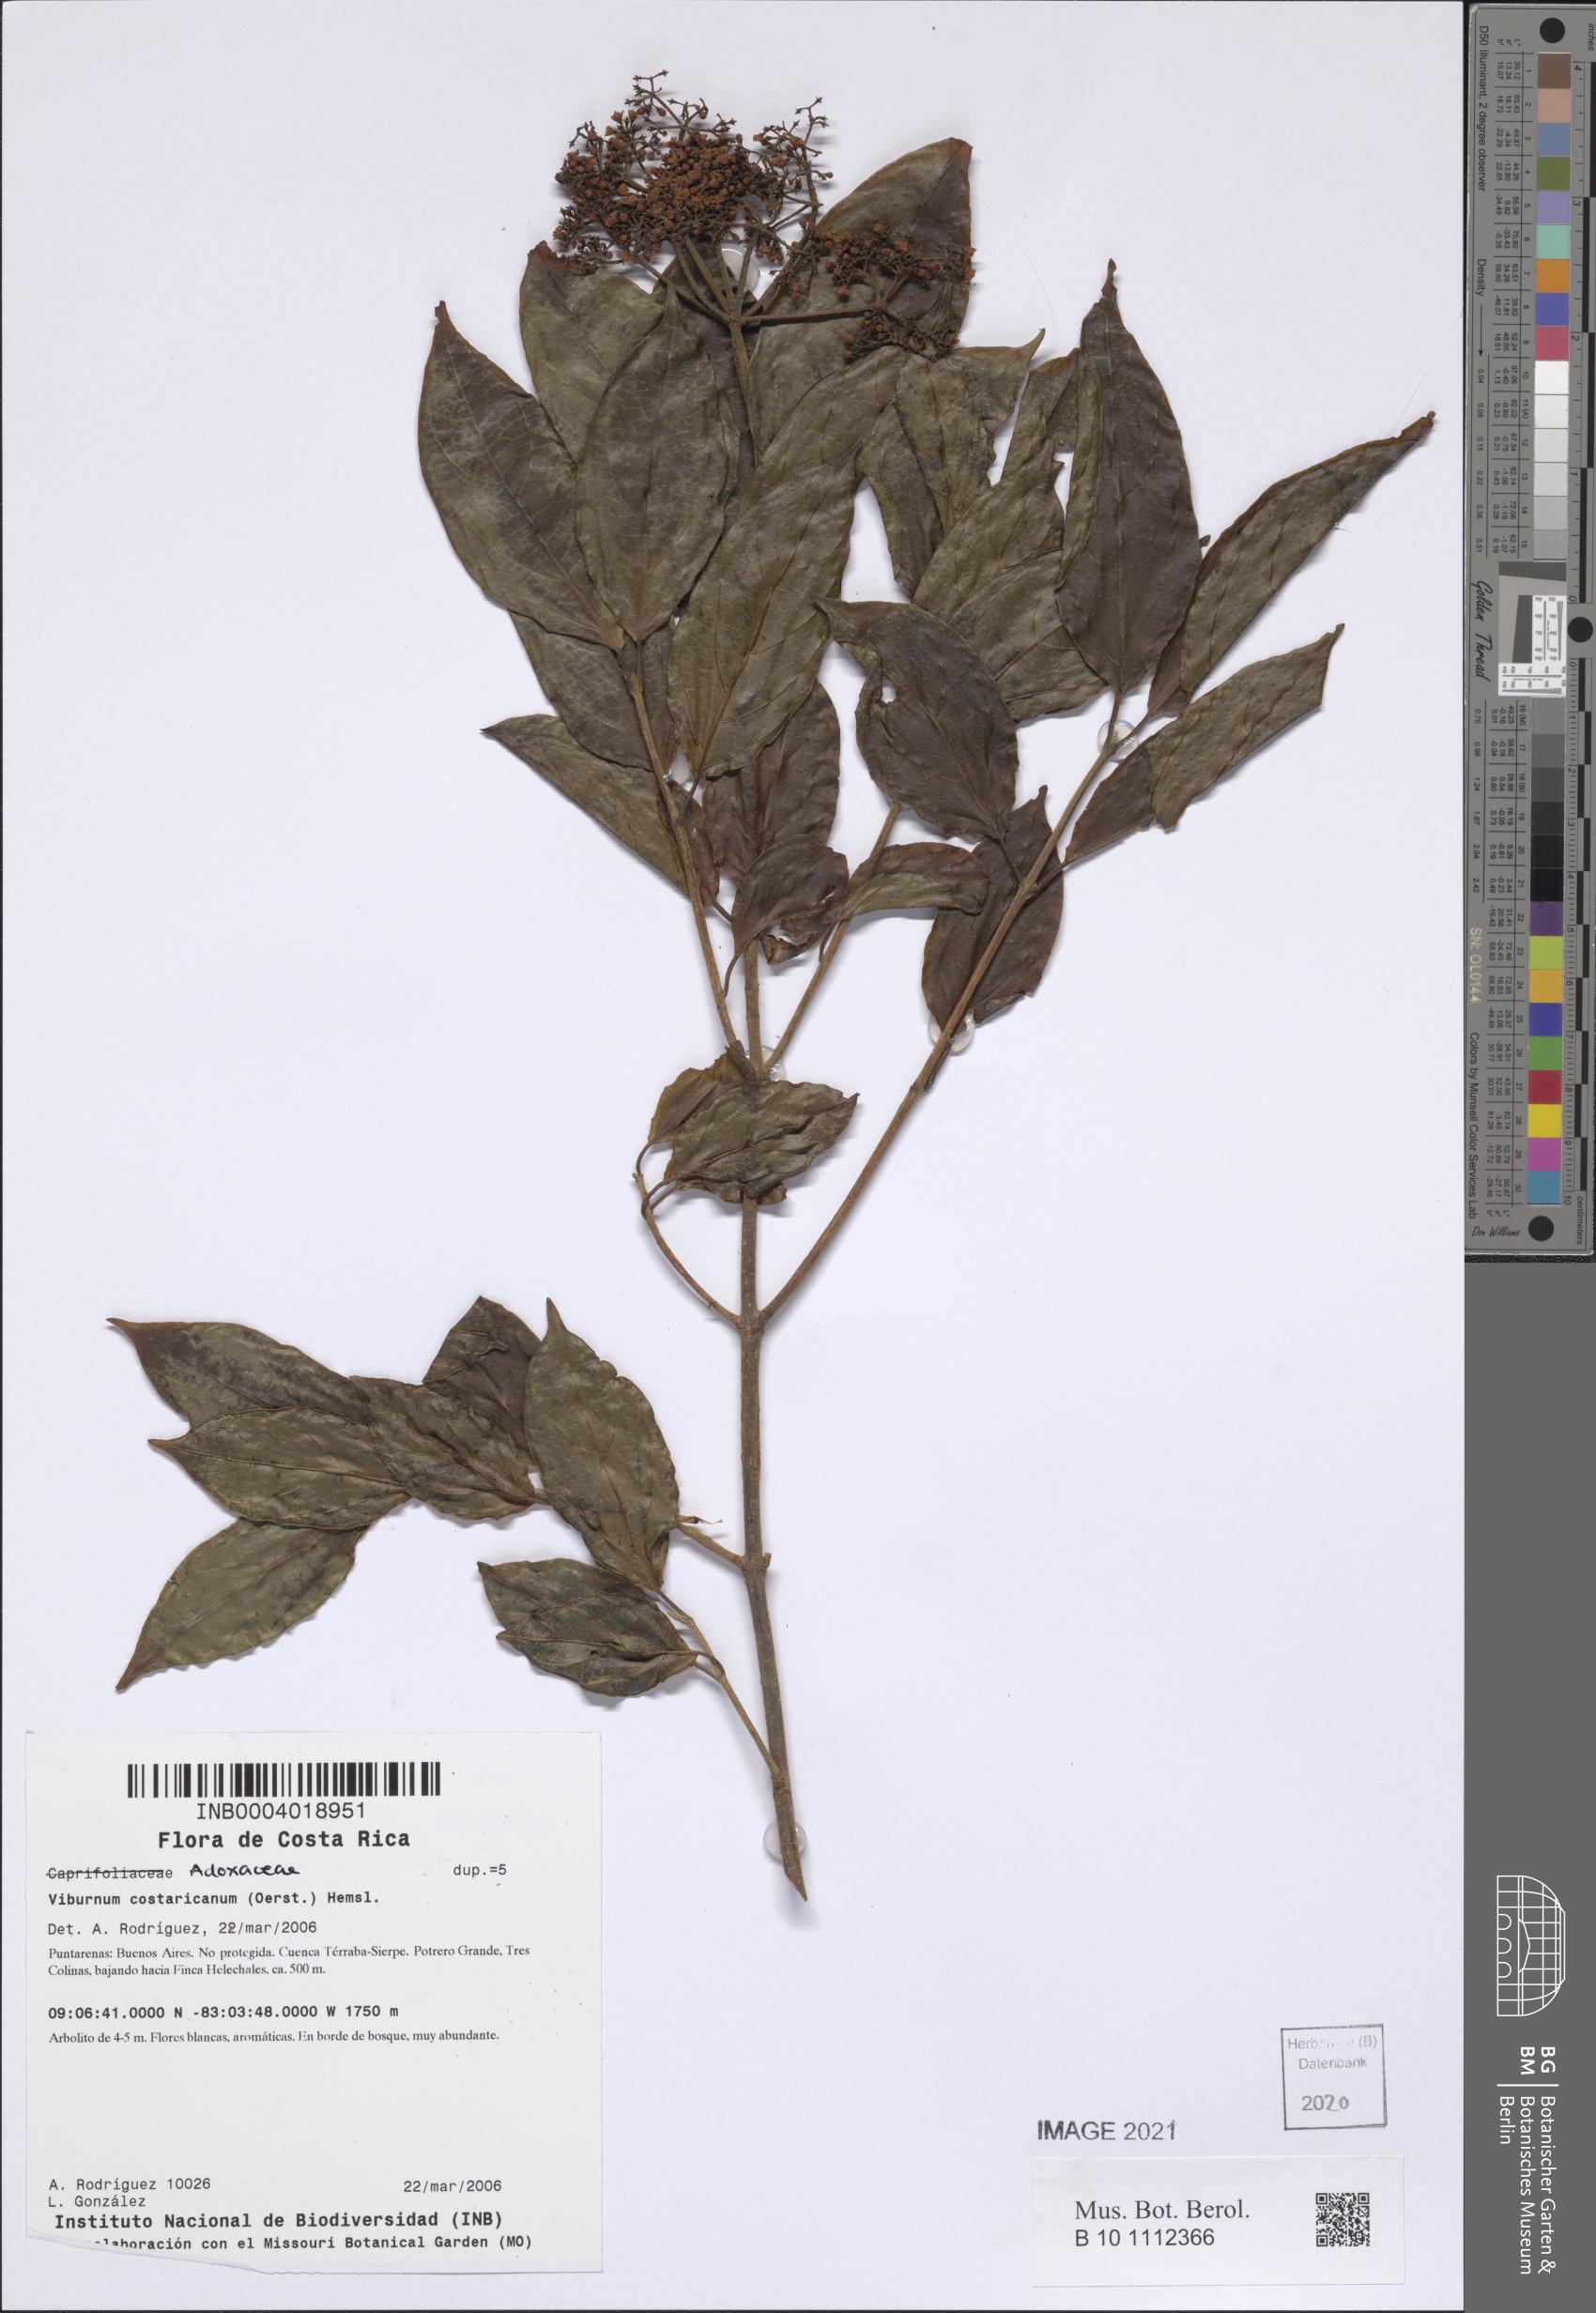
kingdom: Plantae
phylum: Tracheophyta
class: Magnoliopsida
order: Dipsacales
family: Viburnaceae
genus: Viburnum
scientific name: Viburnum costaricanum
